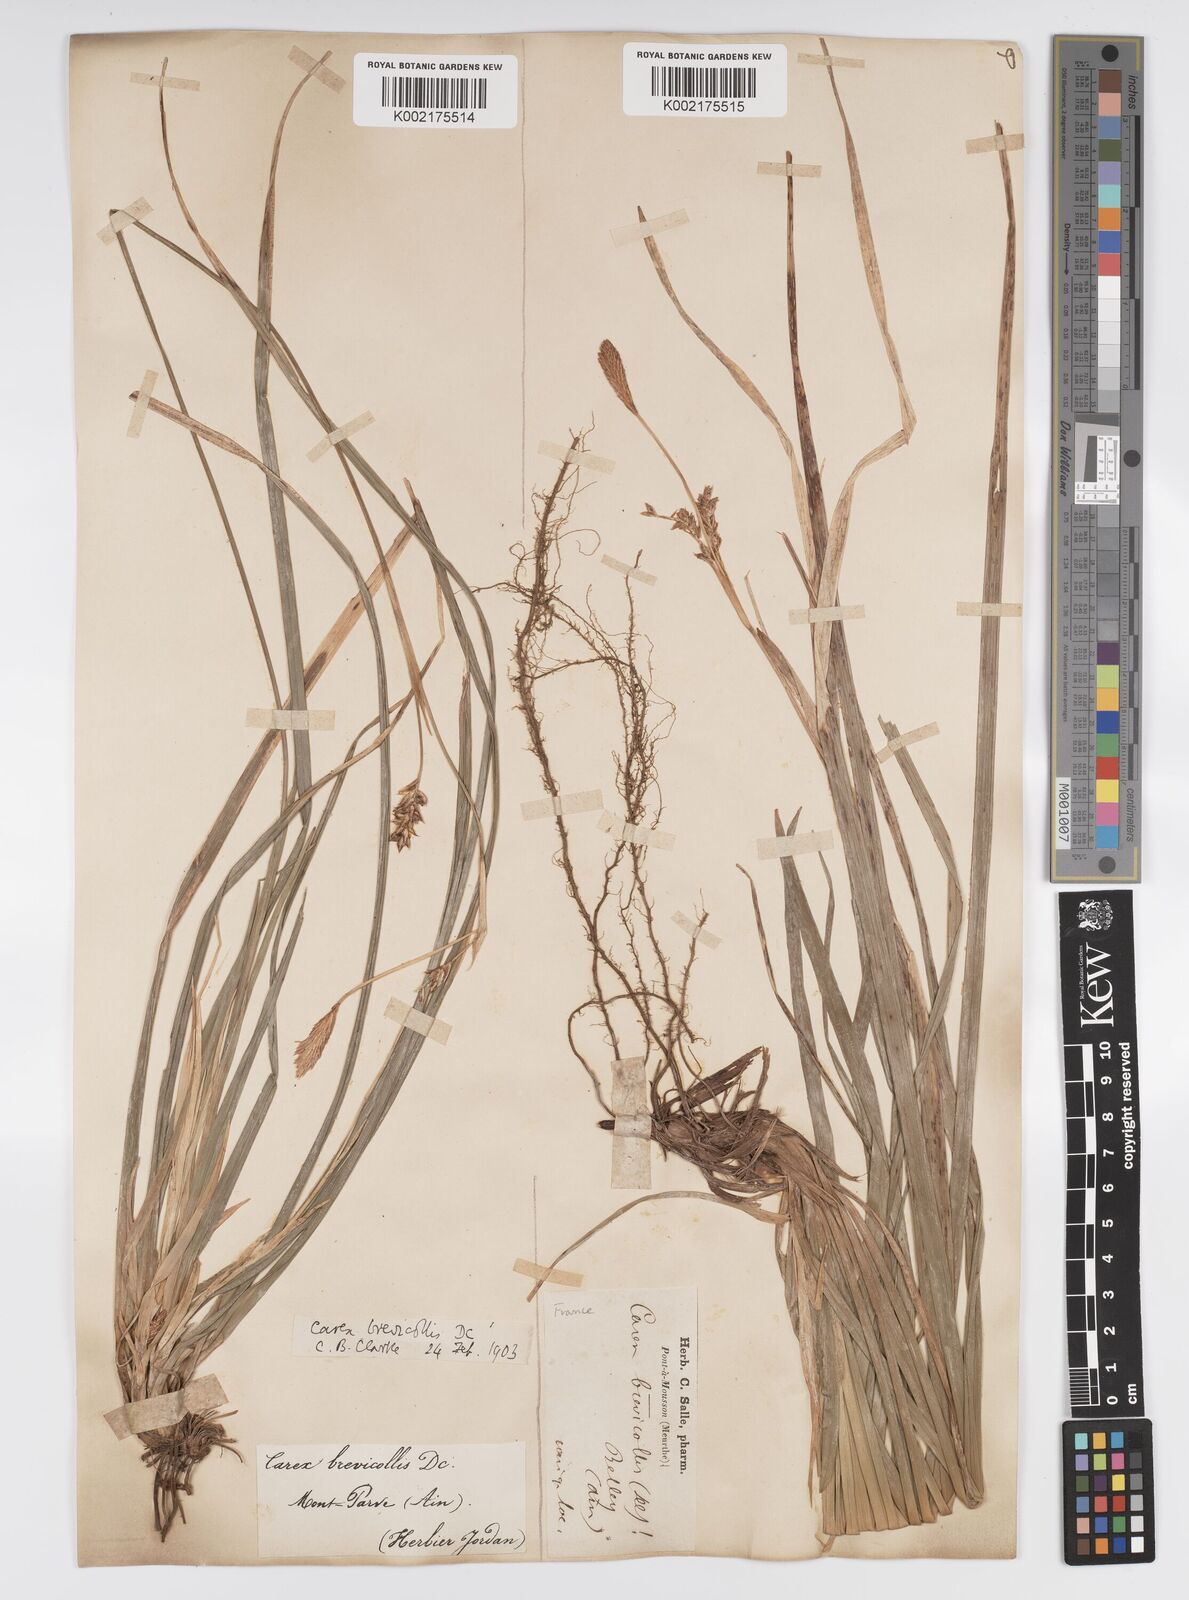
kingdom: Plantae
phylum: Tracheophyta
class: Liliopsida
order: Poales
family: Cyperaceae
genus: Carex
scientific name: Carex brevicollis
